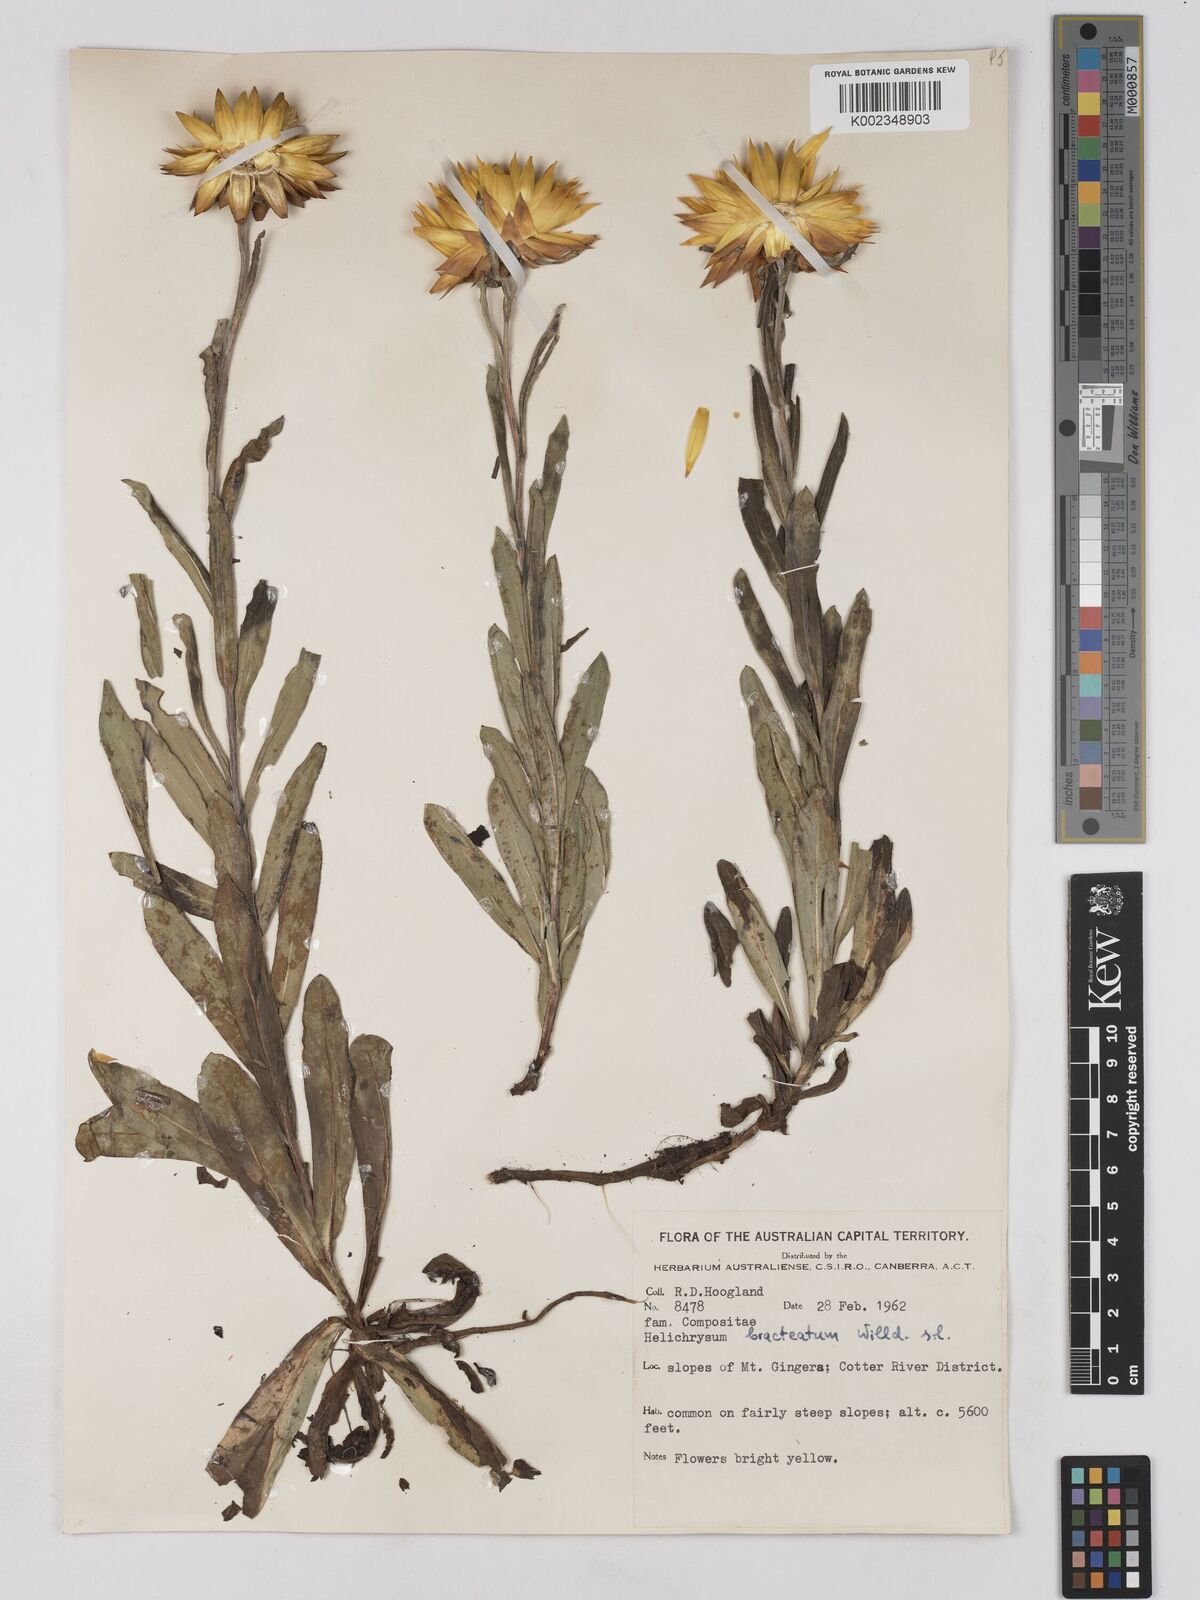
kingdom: Plantae
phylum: Tracheophyta
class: Magnoliopsida
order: Asterales
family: Asteraceae
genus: Xerochrysum
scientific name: Xerochrysum bracteatum
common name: Bracted strawflower
